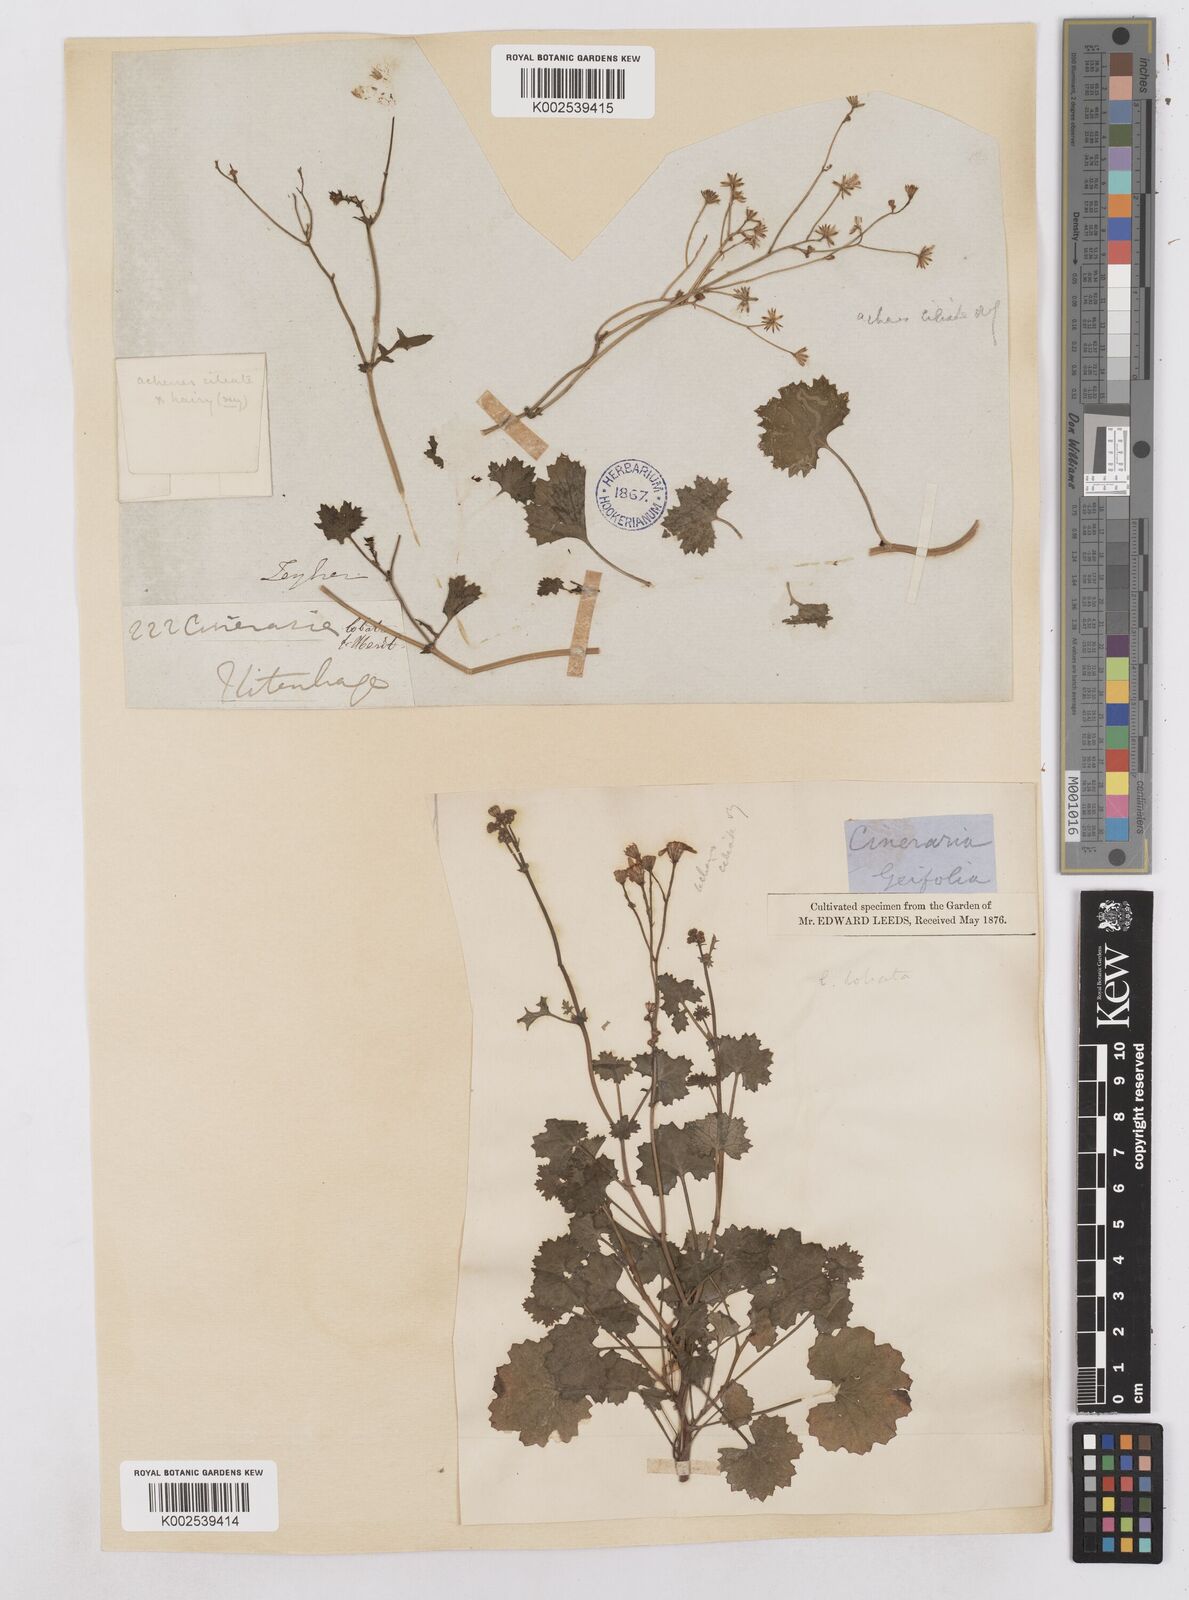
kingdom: Plantae
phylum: Tracheophyta
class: Magnoliopsida
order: Asterales
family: Asteraceae
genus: Cineraria
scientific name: Cineraria
